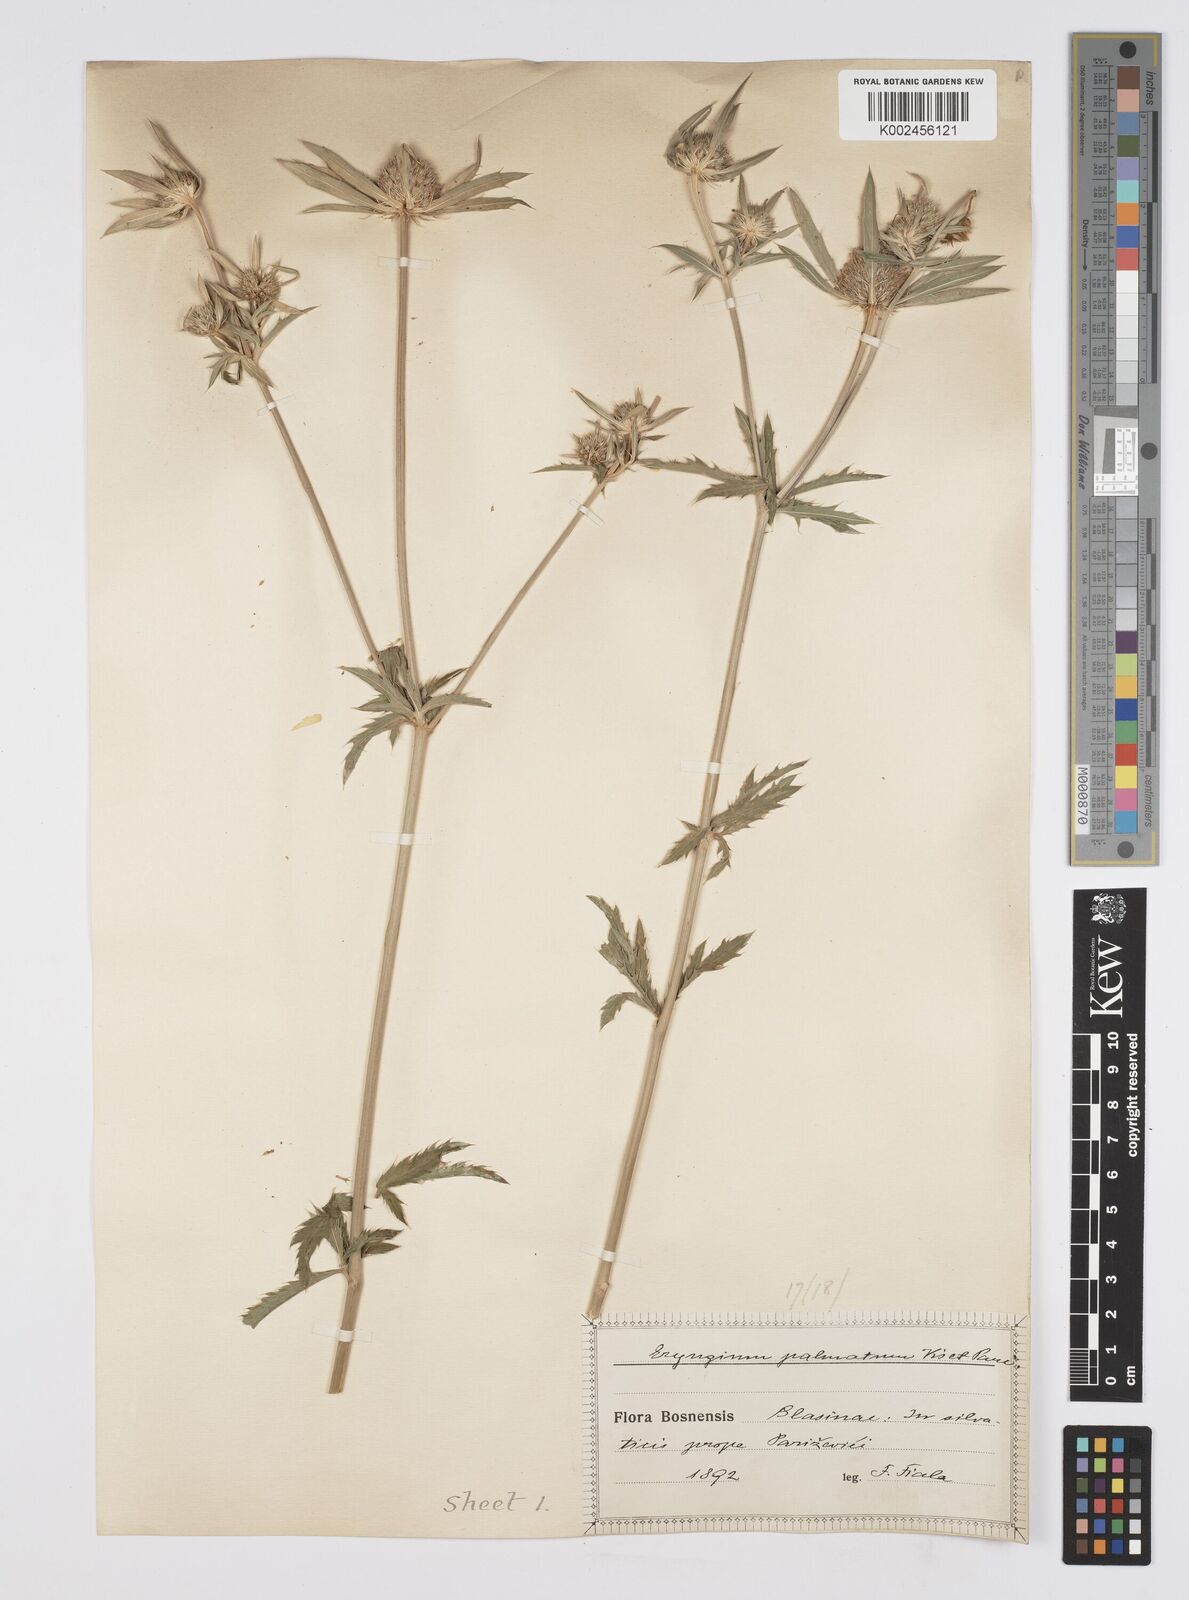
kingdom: Plantae
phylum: Tracheophyta
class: Magnoliopsida
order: Apiales
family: Apiaceae
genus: Eryngium
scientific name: Eryngium palmatum
